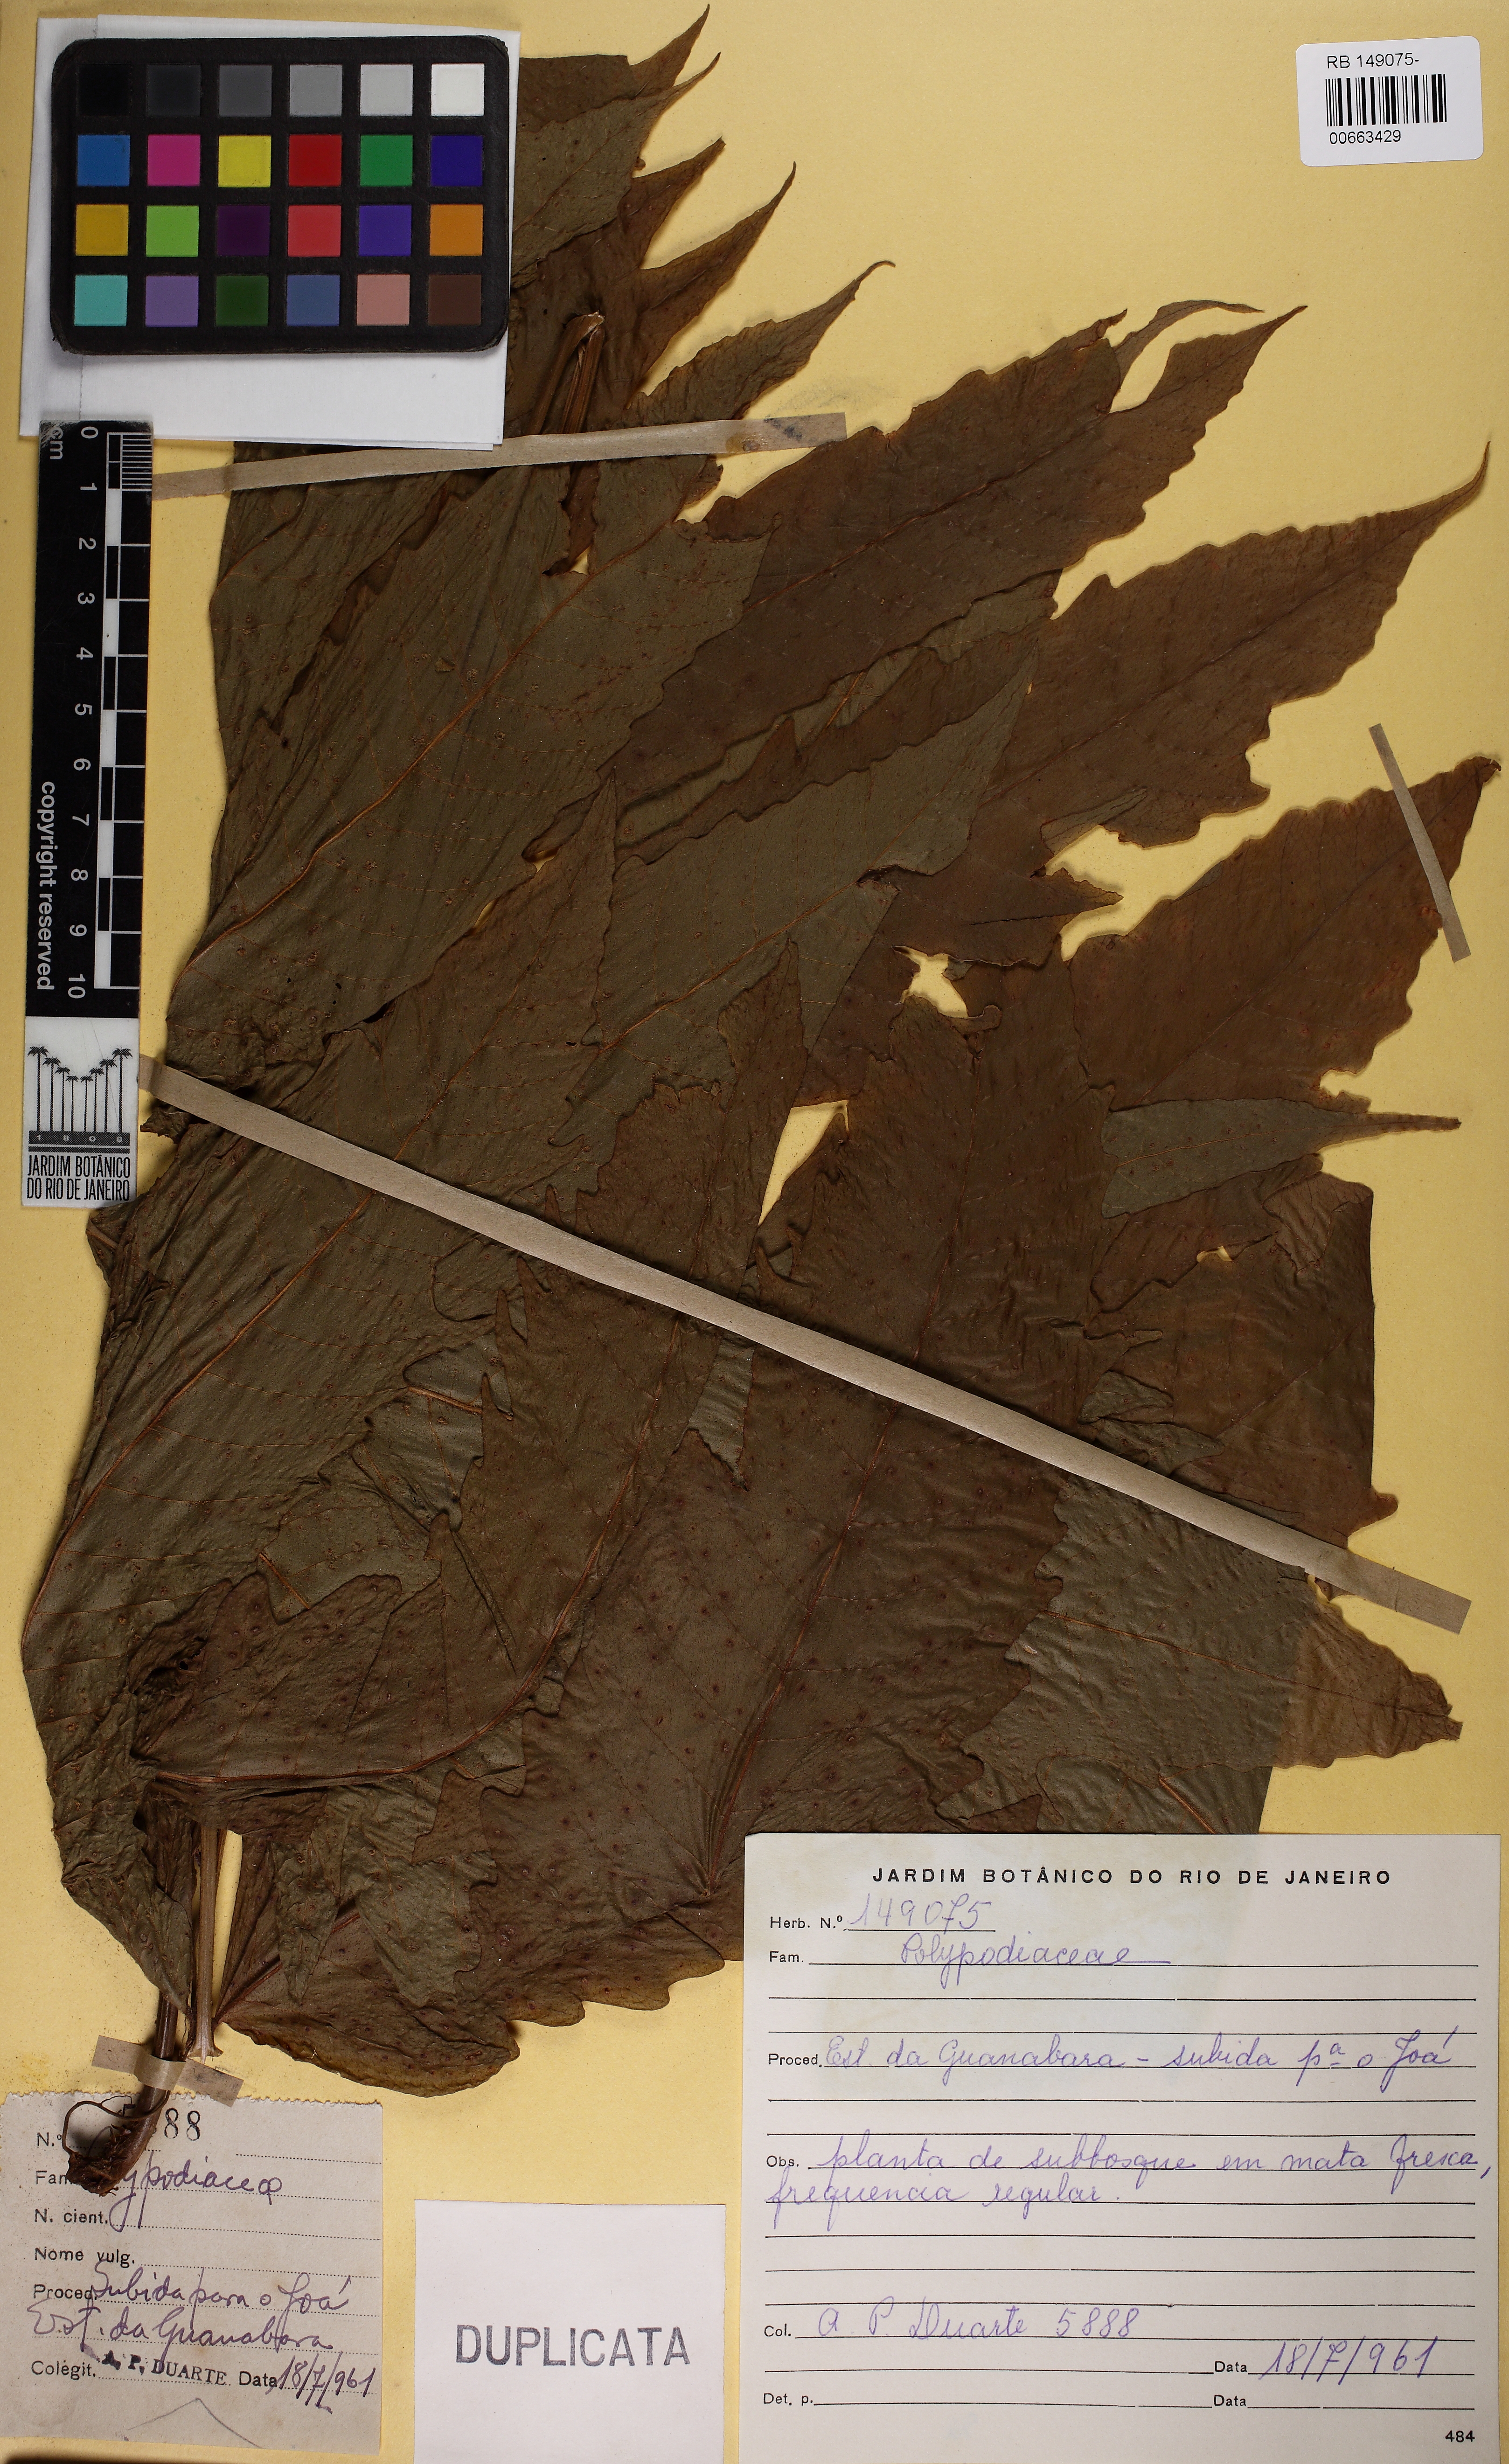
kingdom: Plantae
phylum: Tracheophyta
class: Polypodiopsida
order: Polypodiales
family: Tectariaceae
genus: Tectaria
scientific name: Tectaria pilosa
